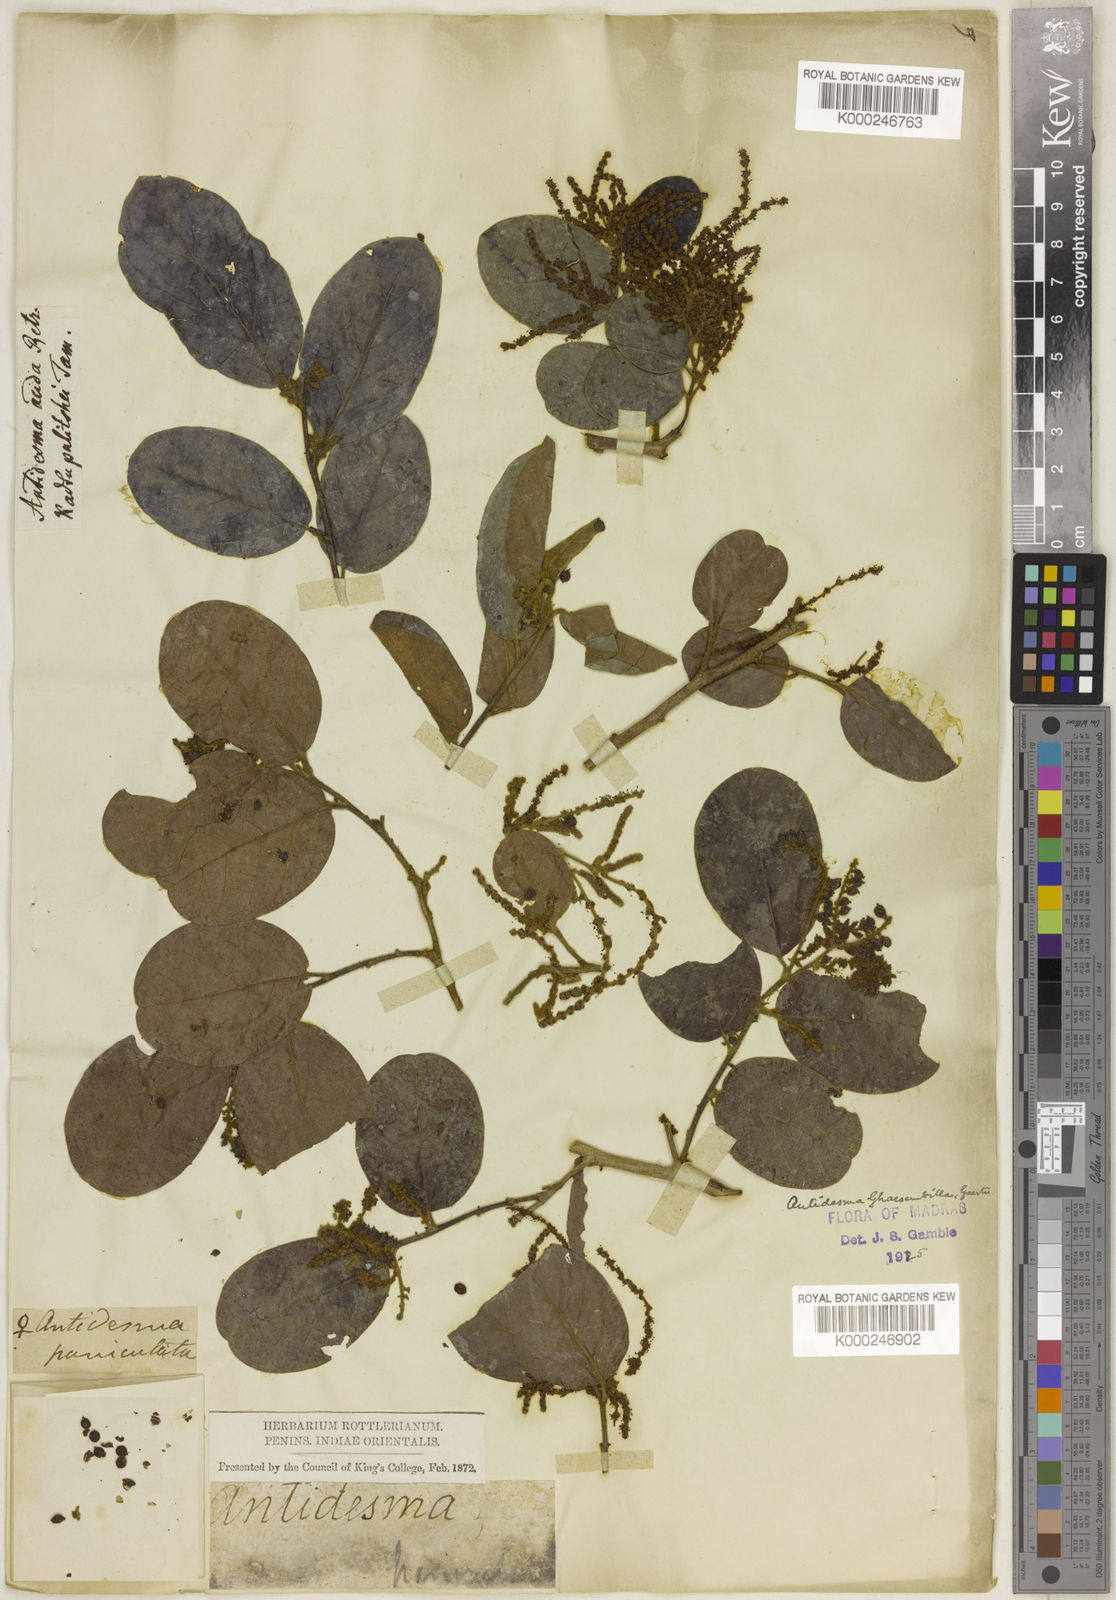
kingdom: Plantae
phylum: Tracheophyta
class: Magnoliopsida
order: Malpighiales
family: Phyllanthaceae
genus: Antidesma
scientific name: Antidesma ghaesembilla
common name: Black currant-tree
